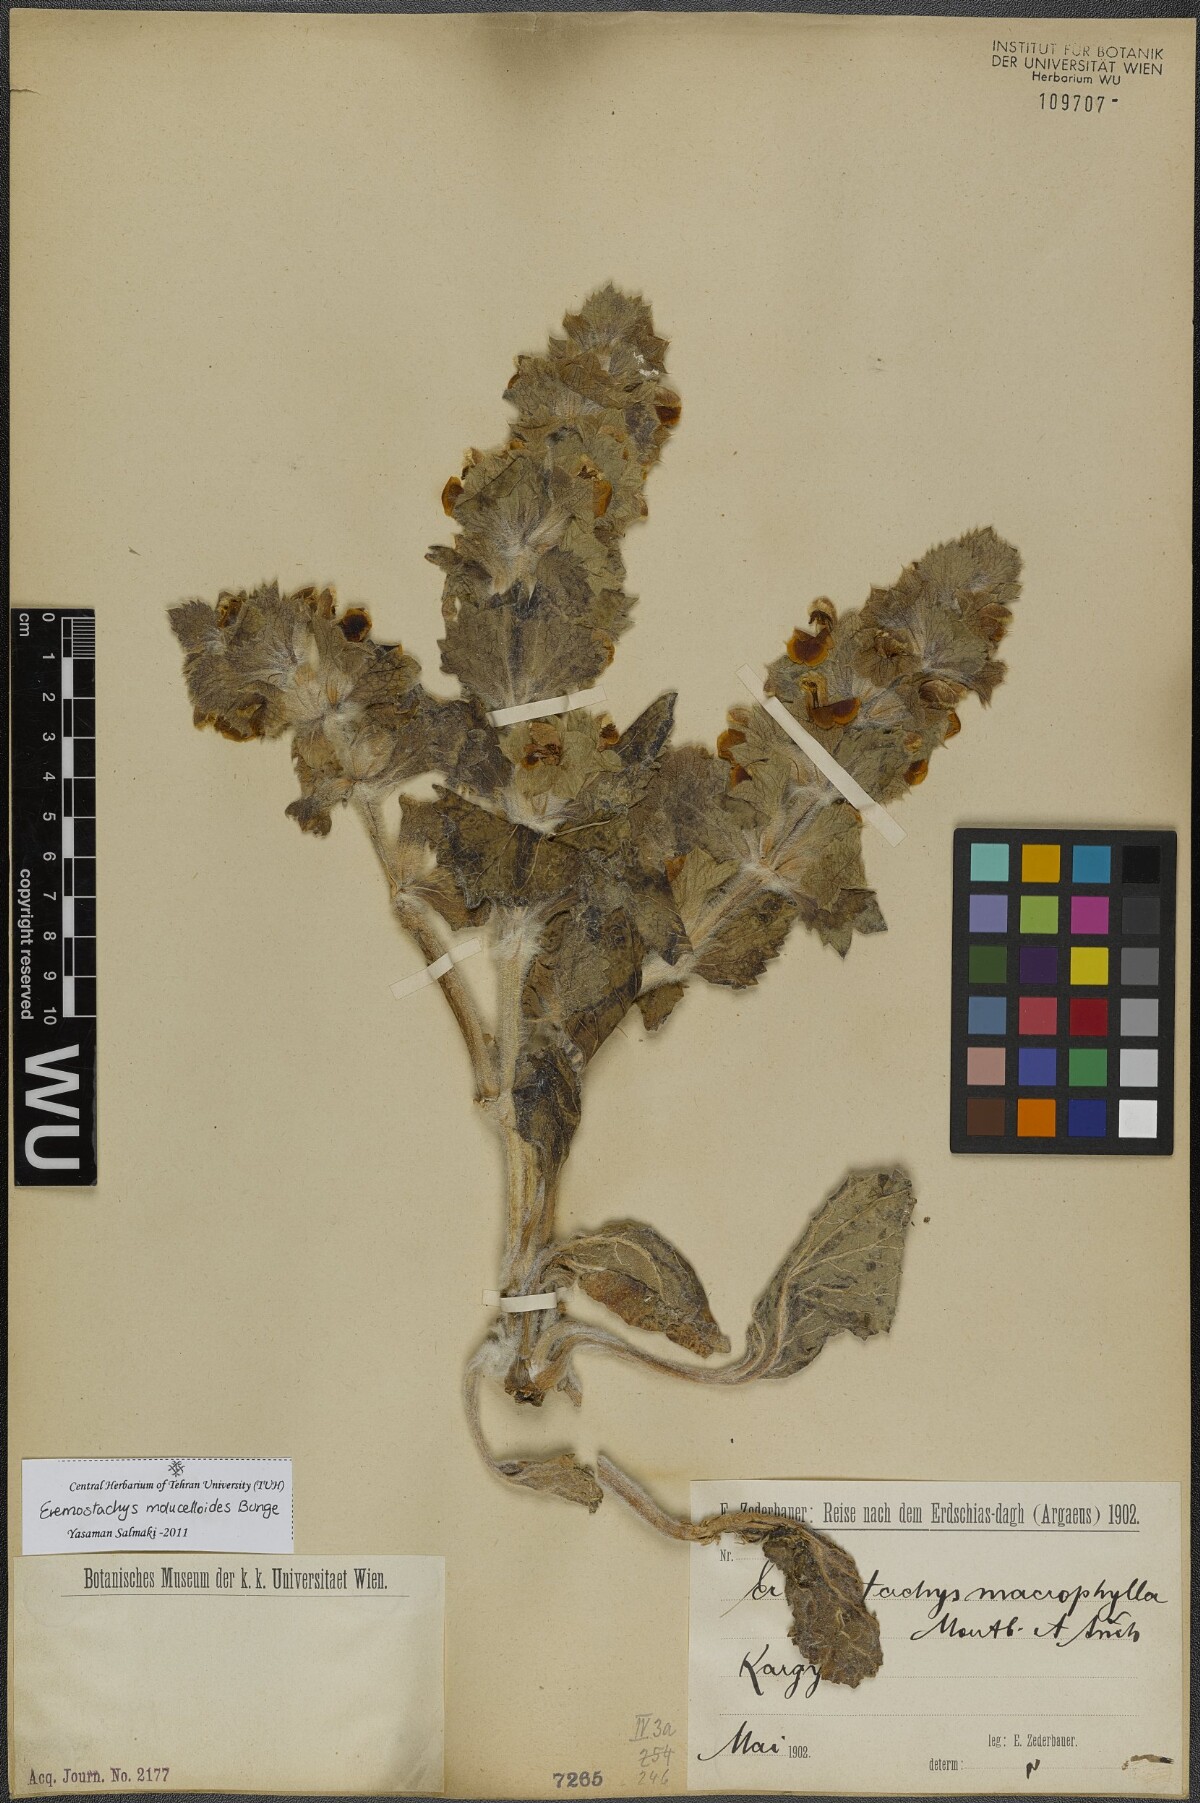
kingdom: Plantae
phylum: Tracheophyta
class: Magnoliopsida
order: Lamiales
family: Lamiaceae
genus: Phlomoides
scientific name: Phlomoides molucelloides
